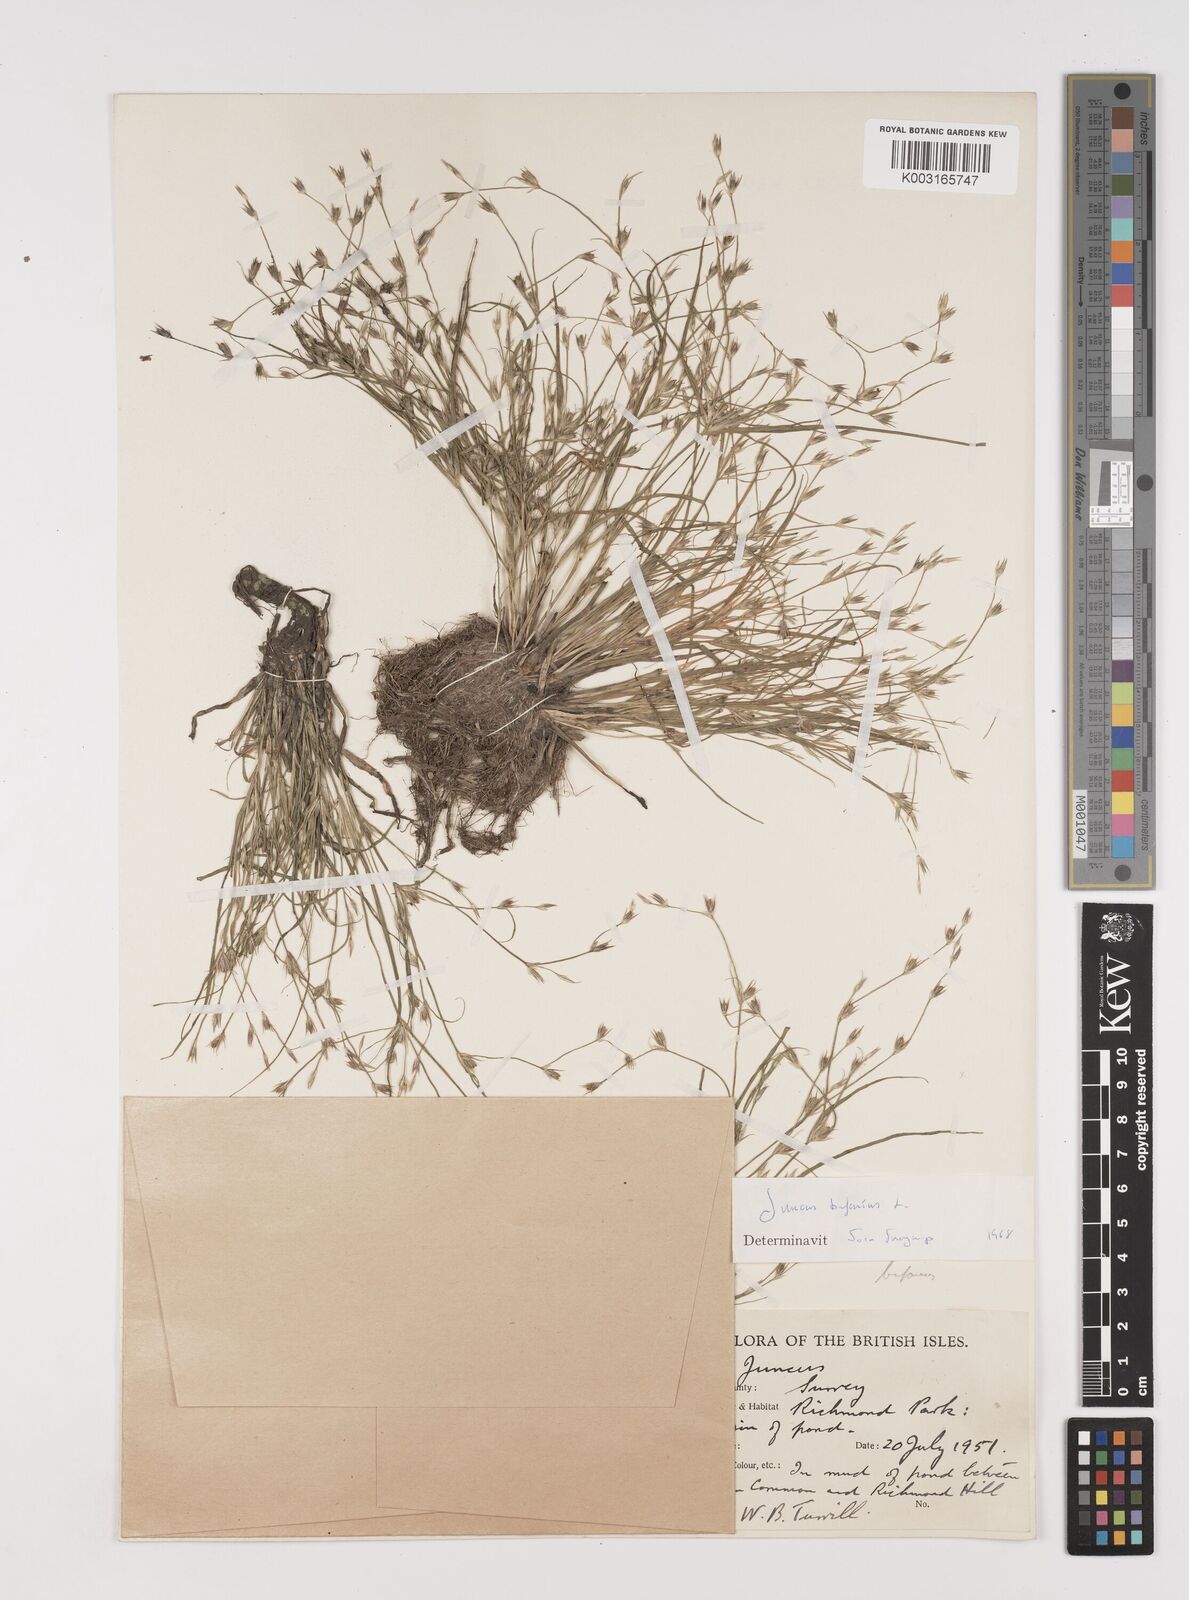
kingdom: Plantae
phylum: Tracheophyta
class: Liliopsida
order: Poales
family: Juncaceae
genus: Juncus
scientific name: Juncus bufonius
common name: Toad rush
